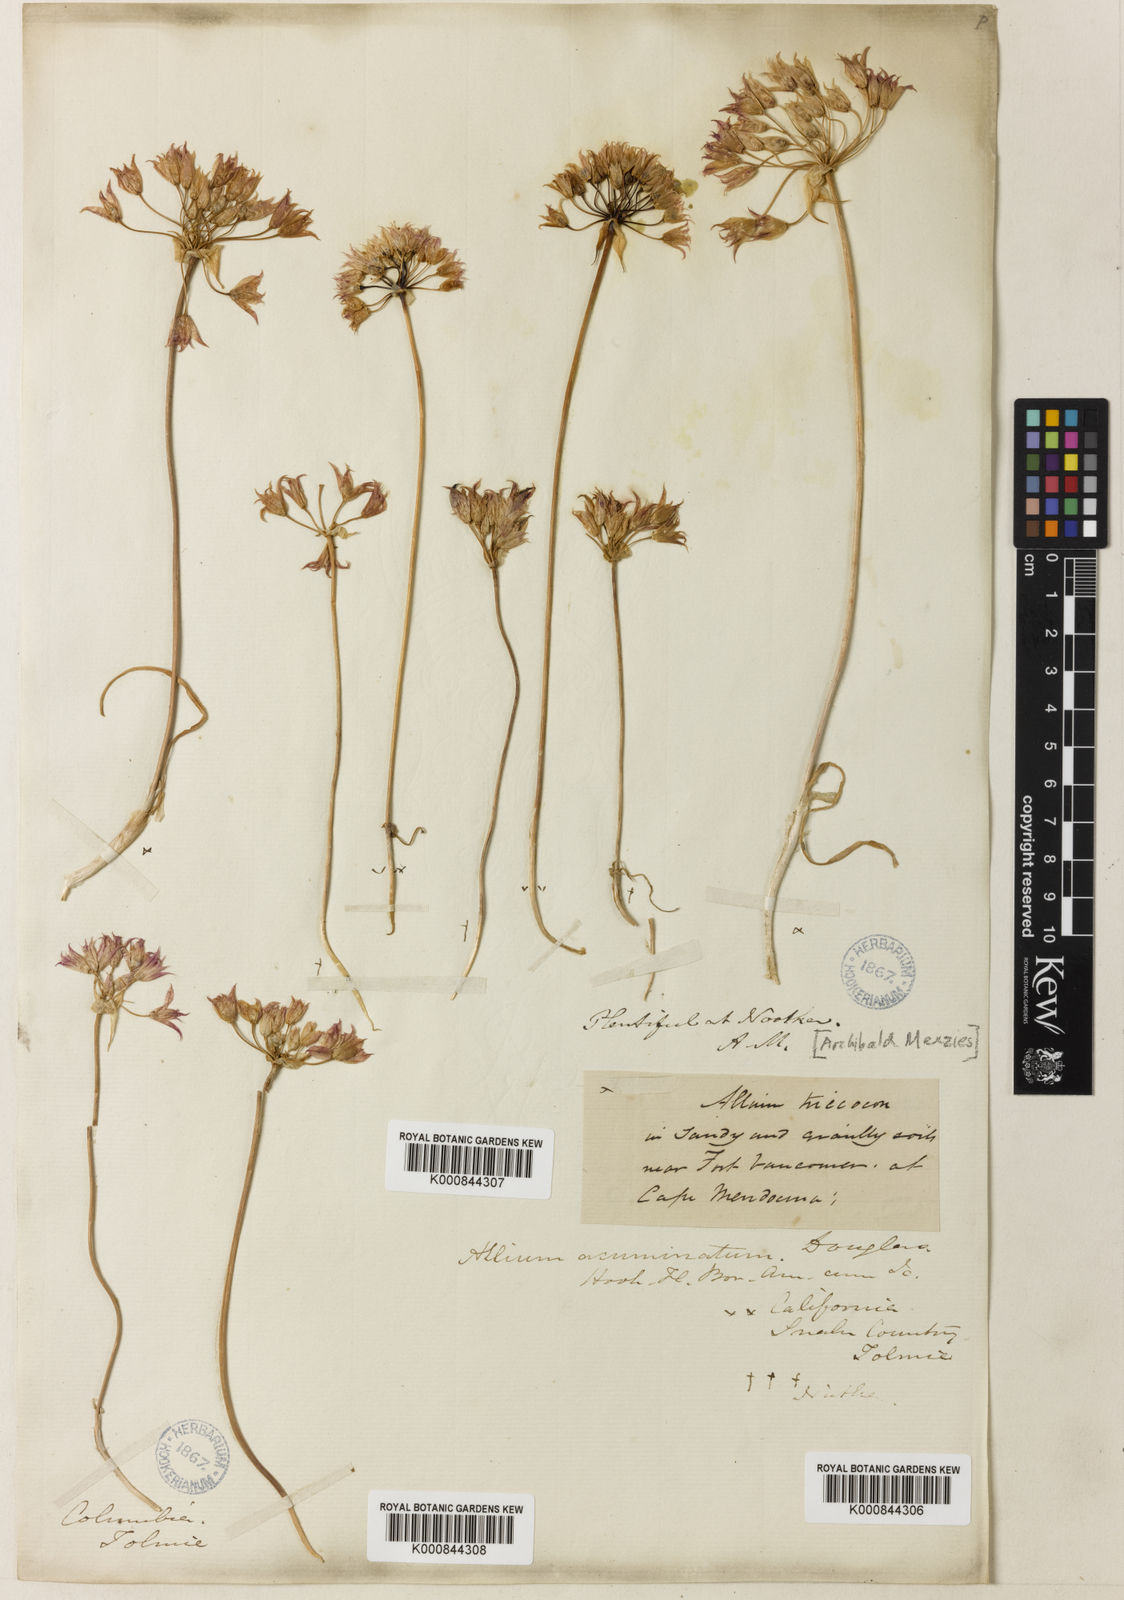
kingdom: Plantae
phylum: Tracheophyta
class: Liliopsida
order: Asparagales
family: Amaryllidaceae
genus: Allium
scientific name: Allium
